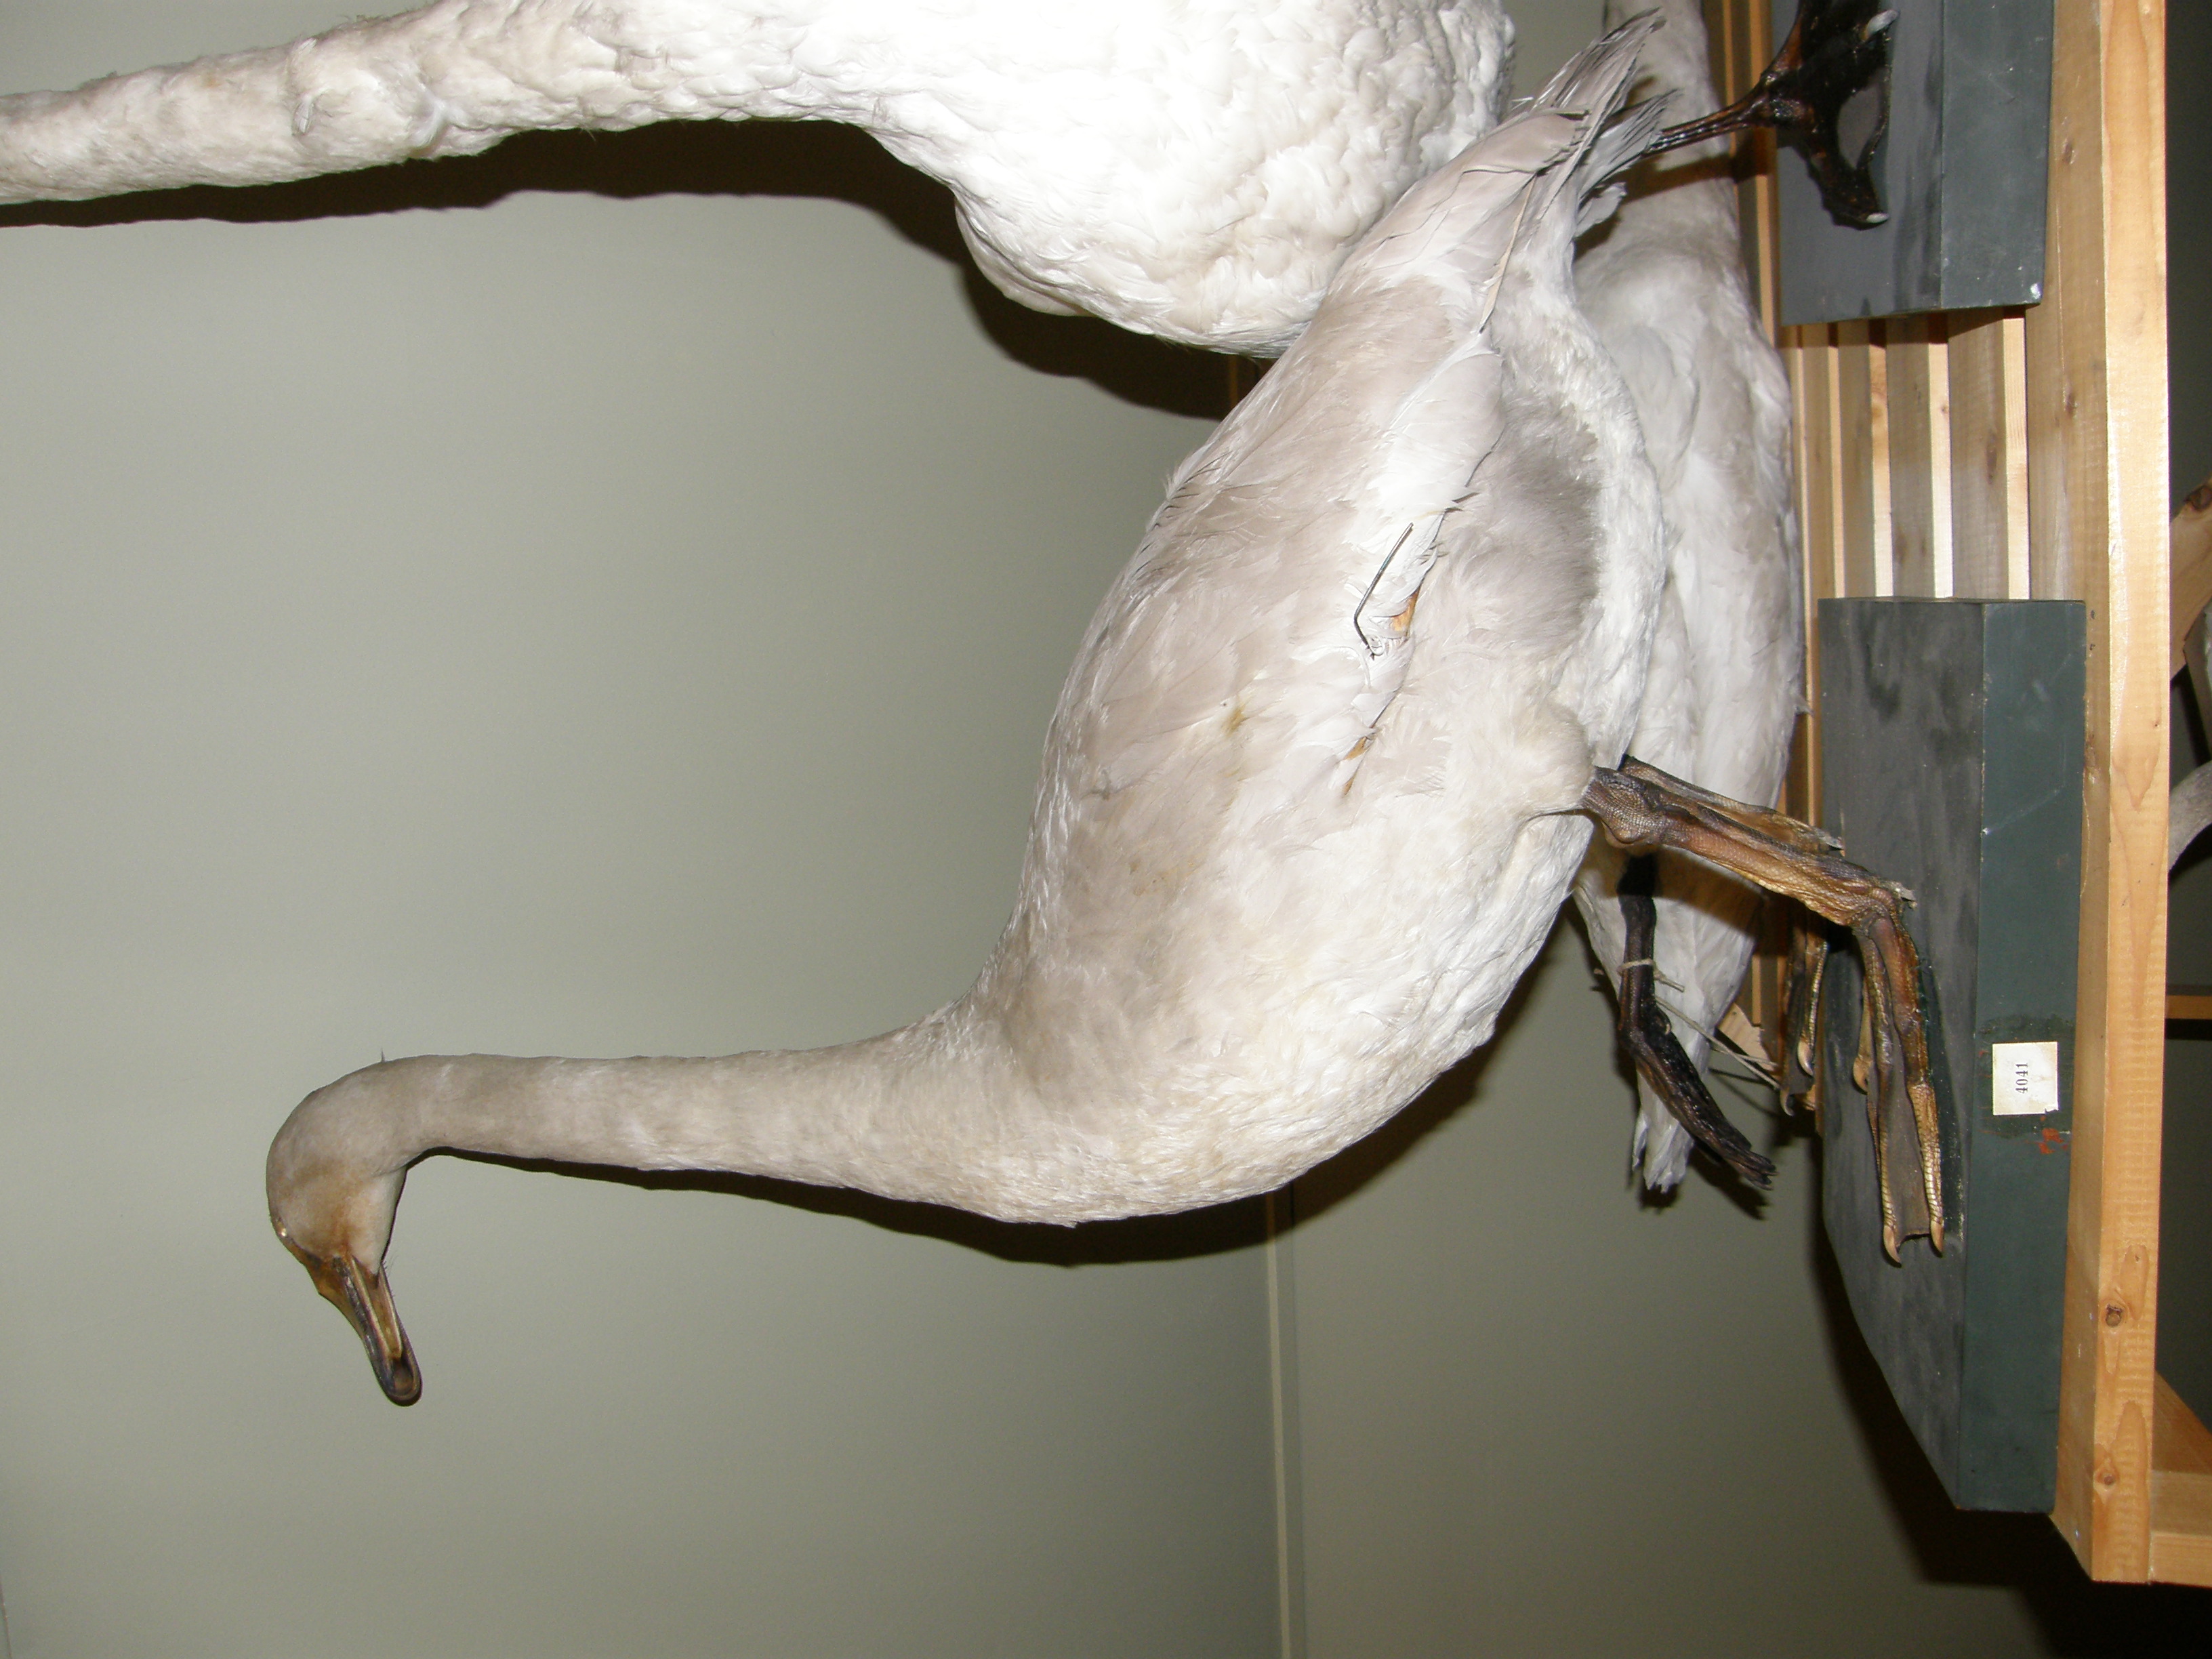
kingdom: Animalia
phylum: Chordata
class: Aves
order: Anseriformes
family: Anatidae
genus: Cygnus
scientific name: Cygnus cygnus
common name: Whooper swan
